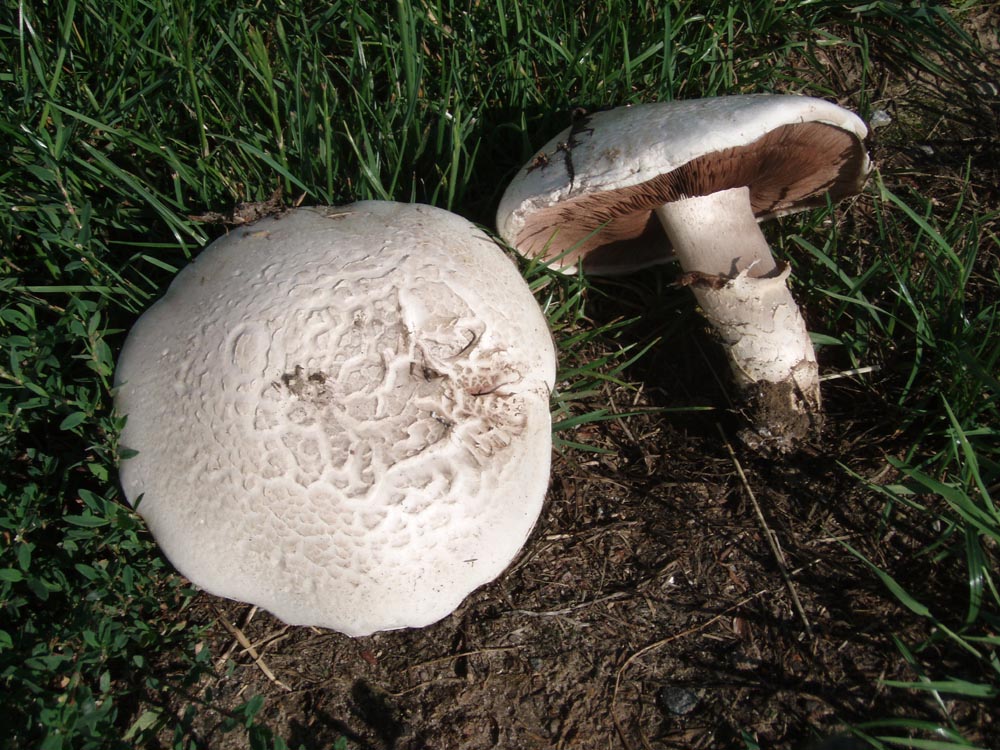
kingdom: Fungi
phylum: Basidiomycota
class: Agaricomycetes
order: Agaricales
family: Agaricaceae
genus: Agaricus
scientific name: Agaricus bernardii
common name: strandengs-champignon
